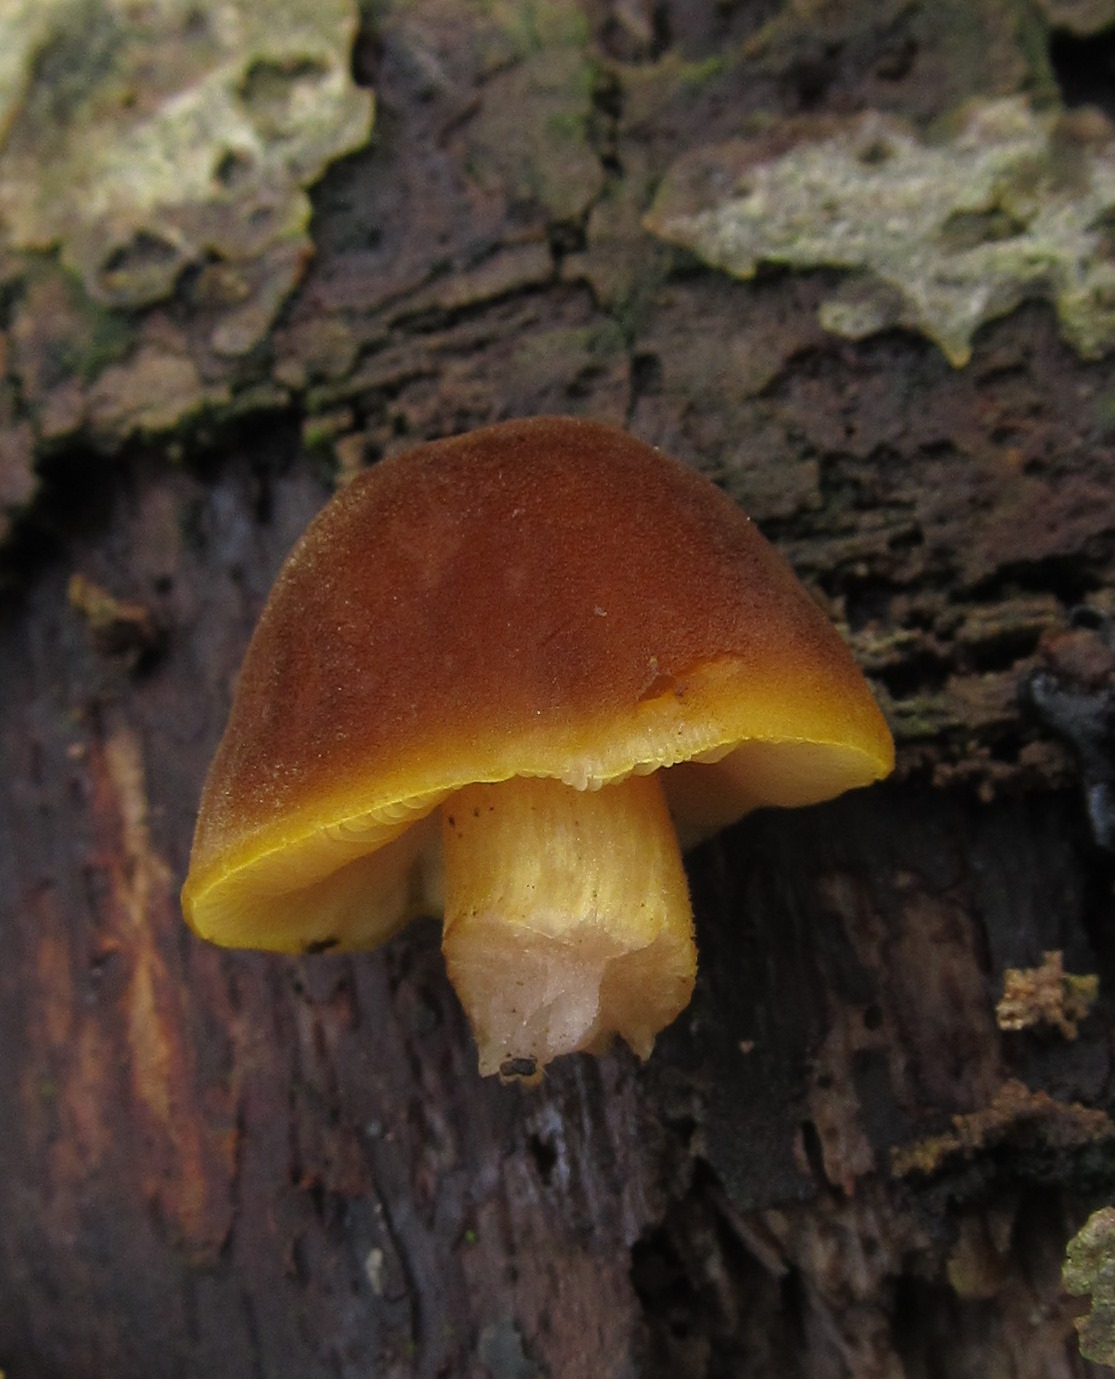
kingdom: Fungi
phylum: Basidiomycota
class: Agaricomycetes
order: Agaricales
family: Pluteaceae
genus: Pluteus
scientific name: Pluteus leoninus
